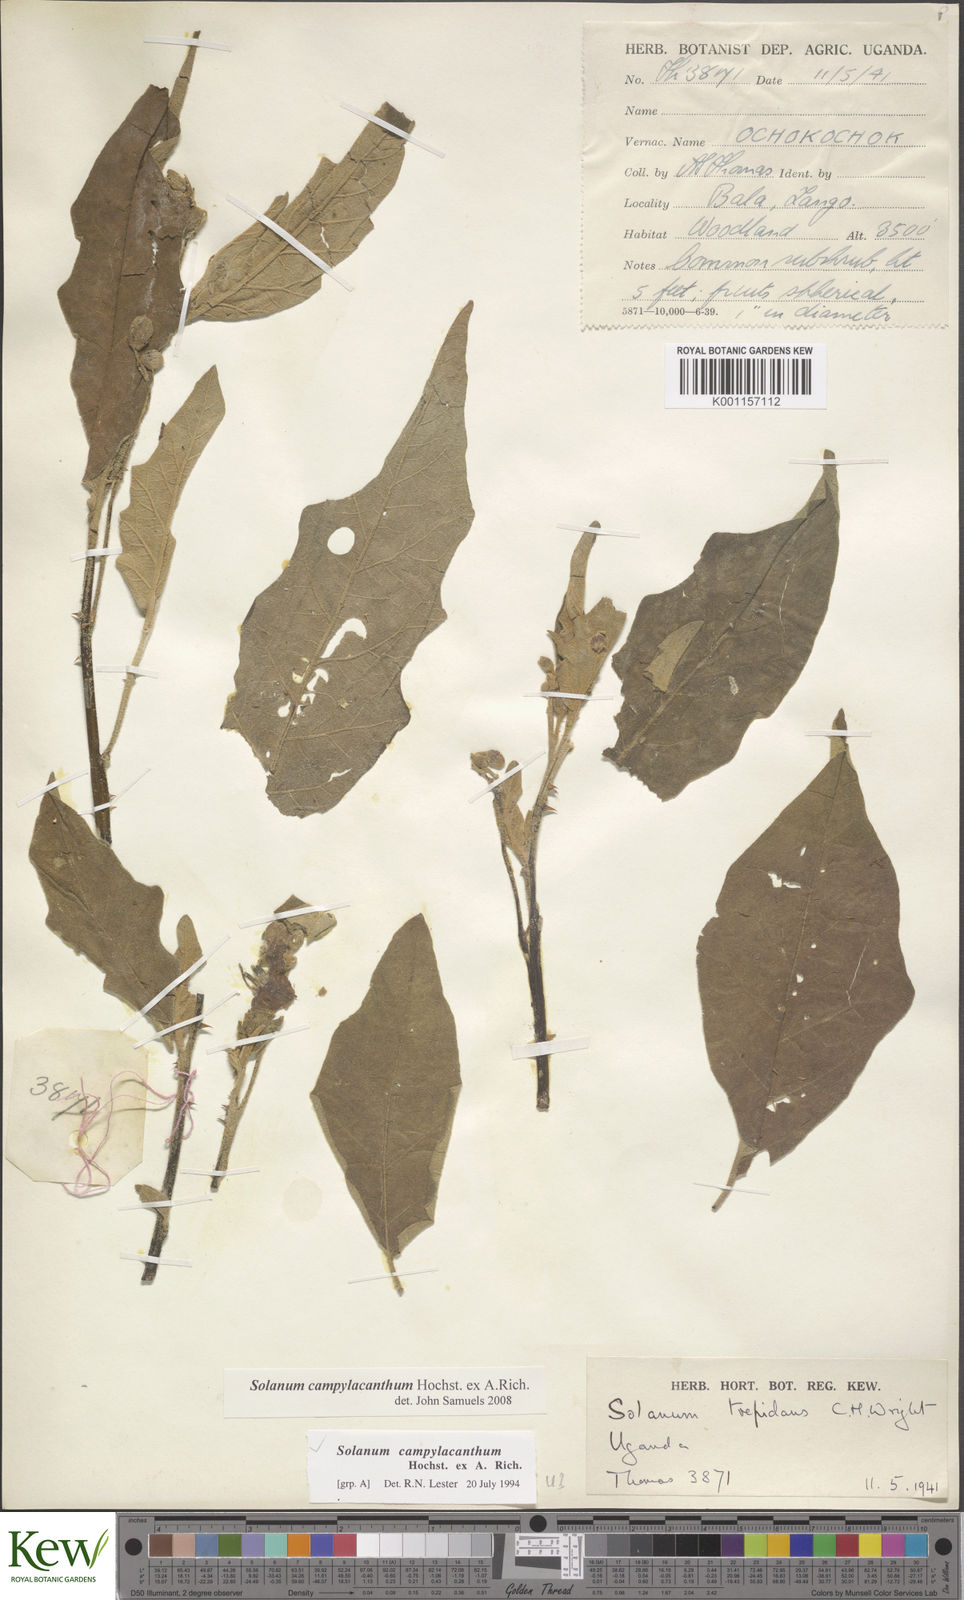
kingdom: Plantae
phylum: Tracheophyta
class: Magnoliopsida
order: Solanales
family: Solanaceae
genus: Solanum
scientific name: Solanum campylacanthum
